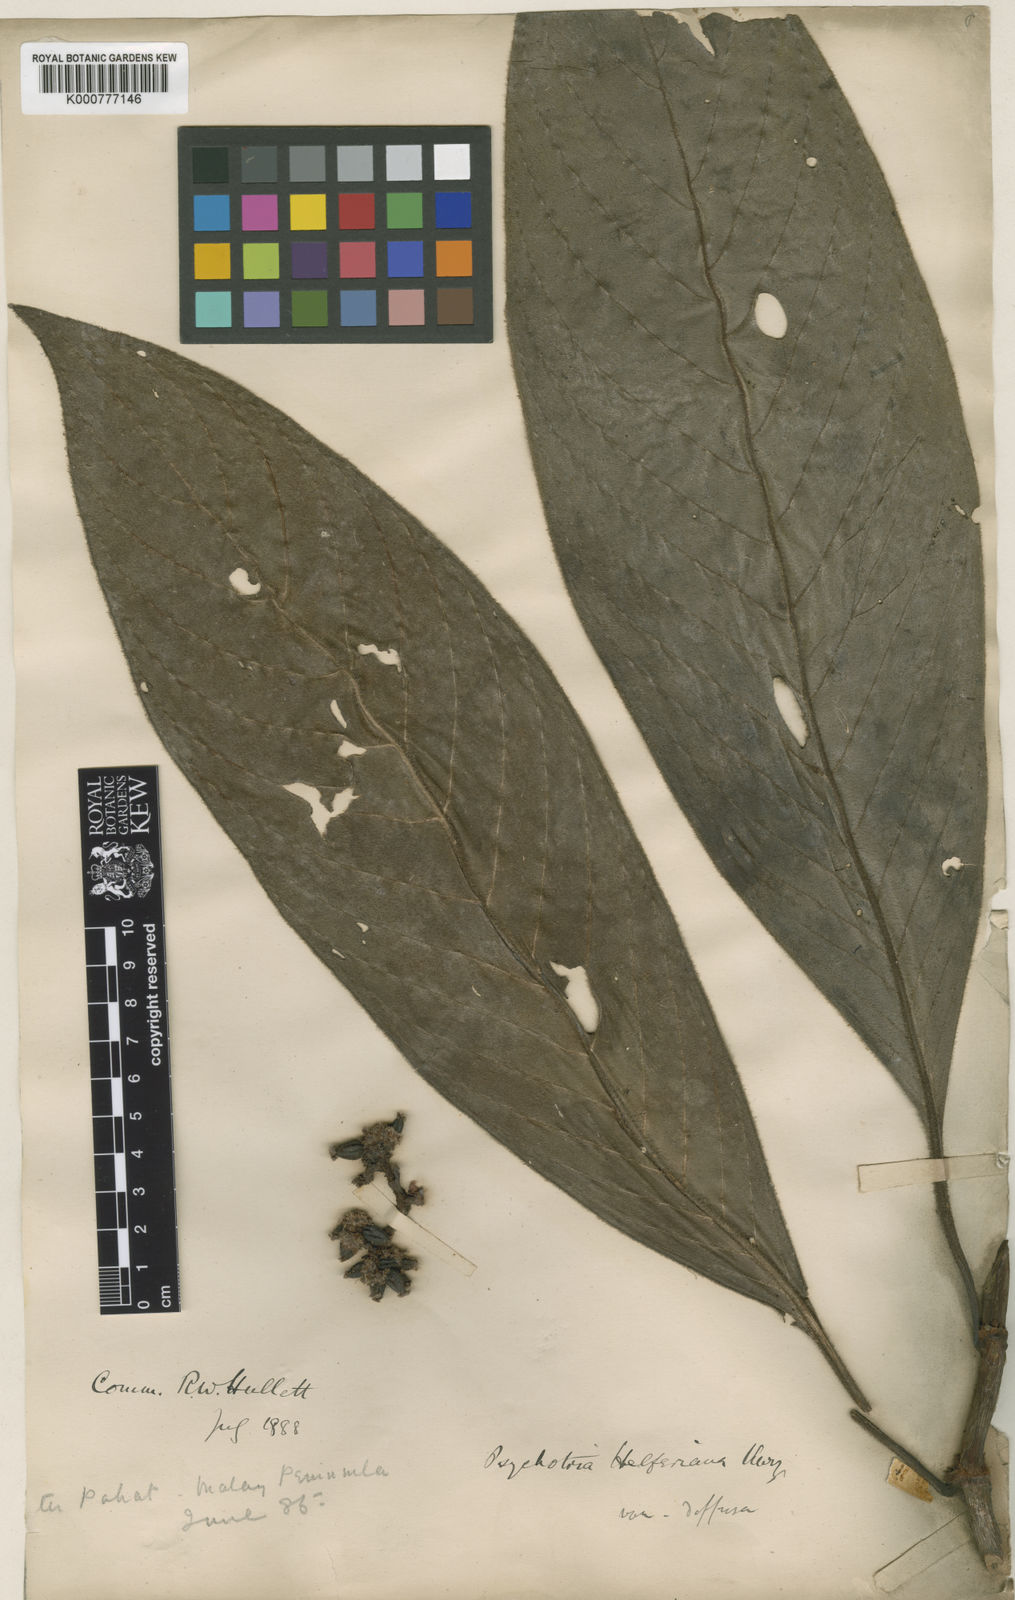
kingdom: Plantae
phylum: Tracheophyta
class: Magnoliopsida
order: Gentianales
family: Rubiaceae
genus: Psychotria
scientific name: Psychotria helferiana
